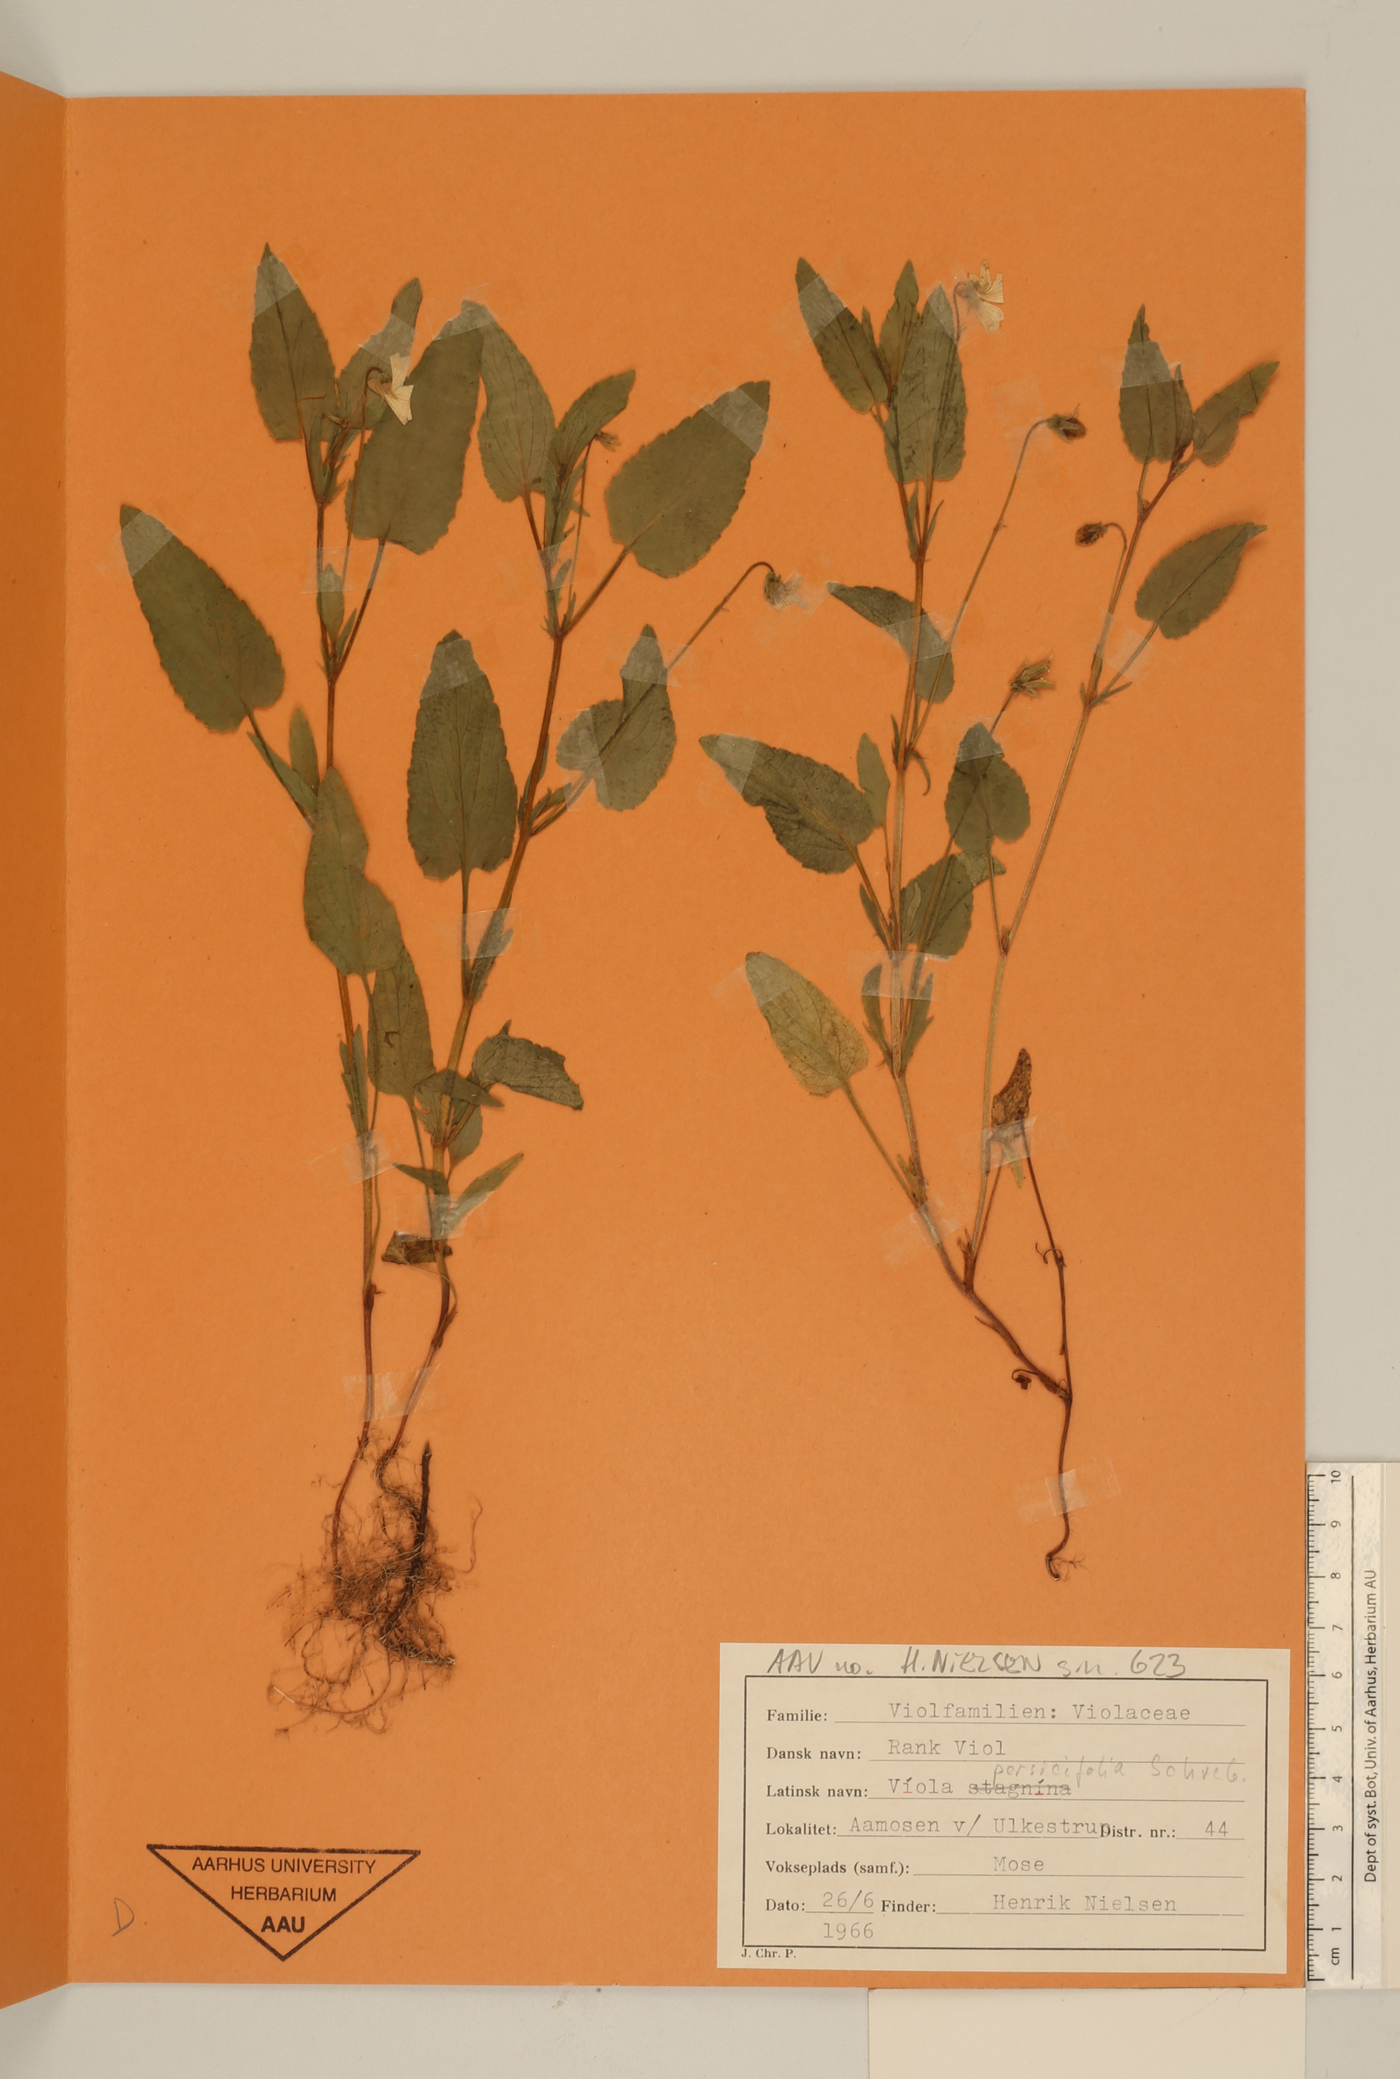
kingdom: Plantae
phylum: Tracheophyta
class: Magnoliopsida
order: Malpighiales
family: Violaceae
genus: Viola
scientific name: Viola stagnina
